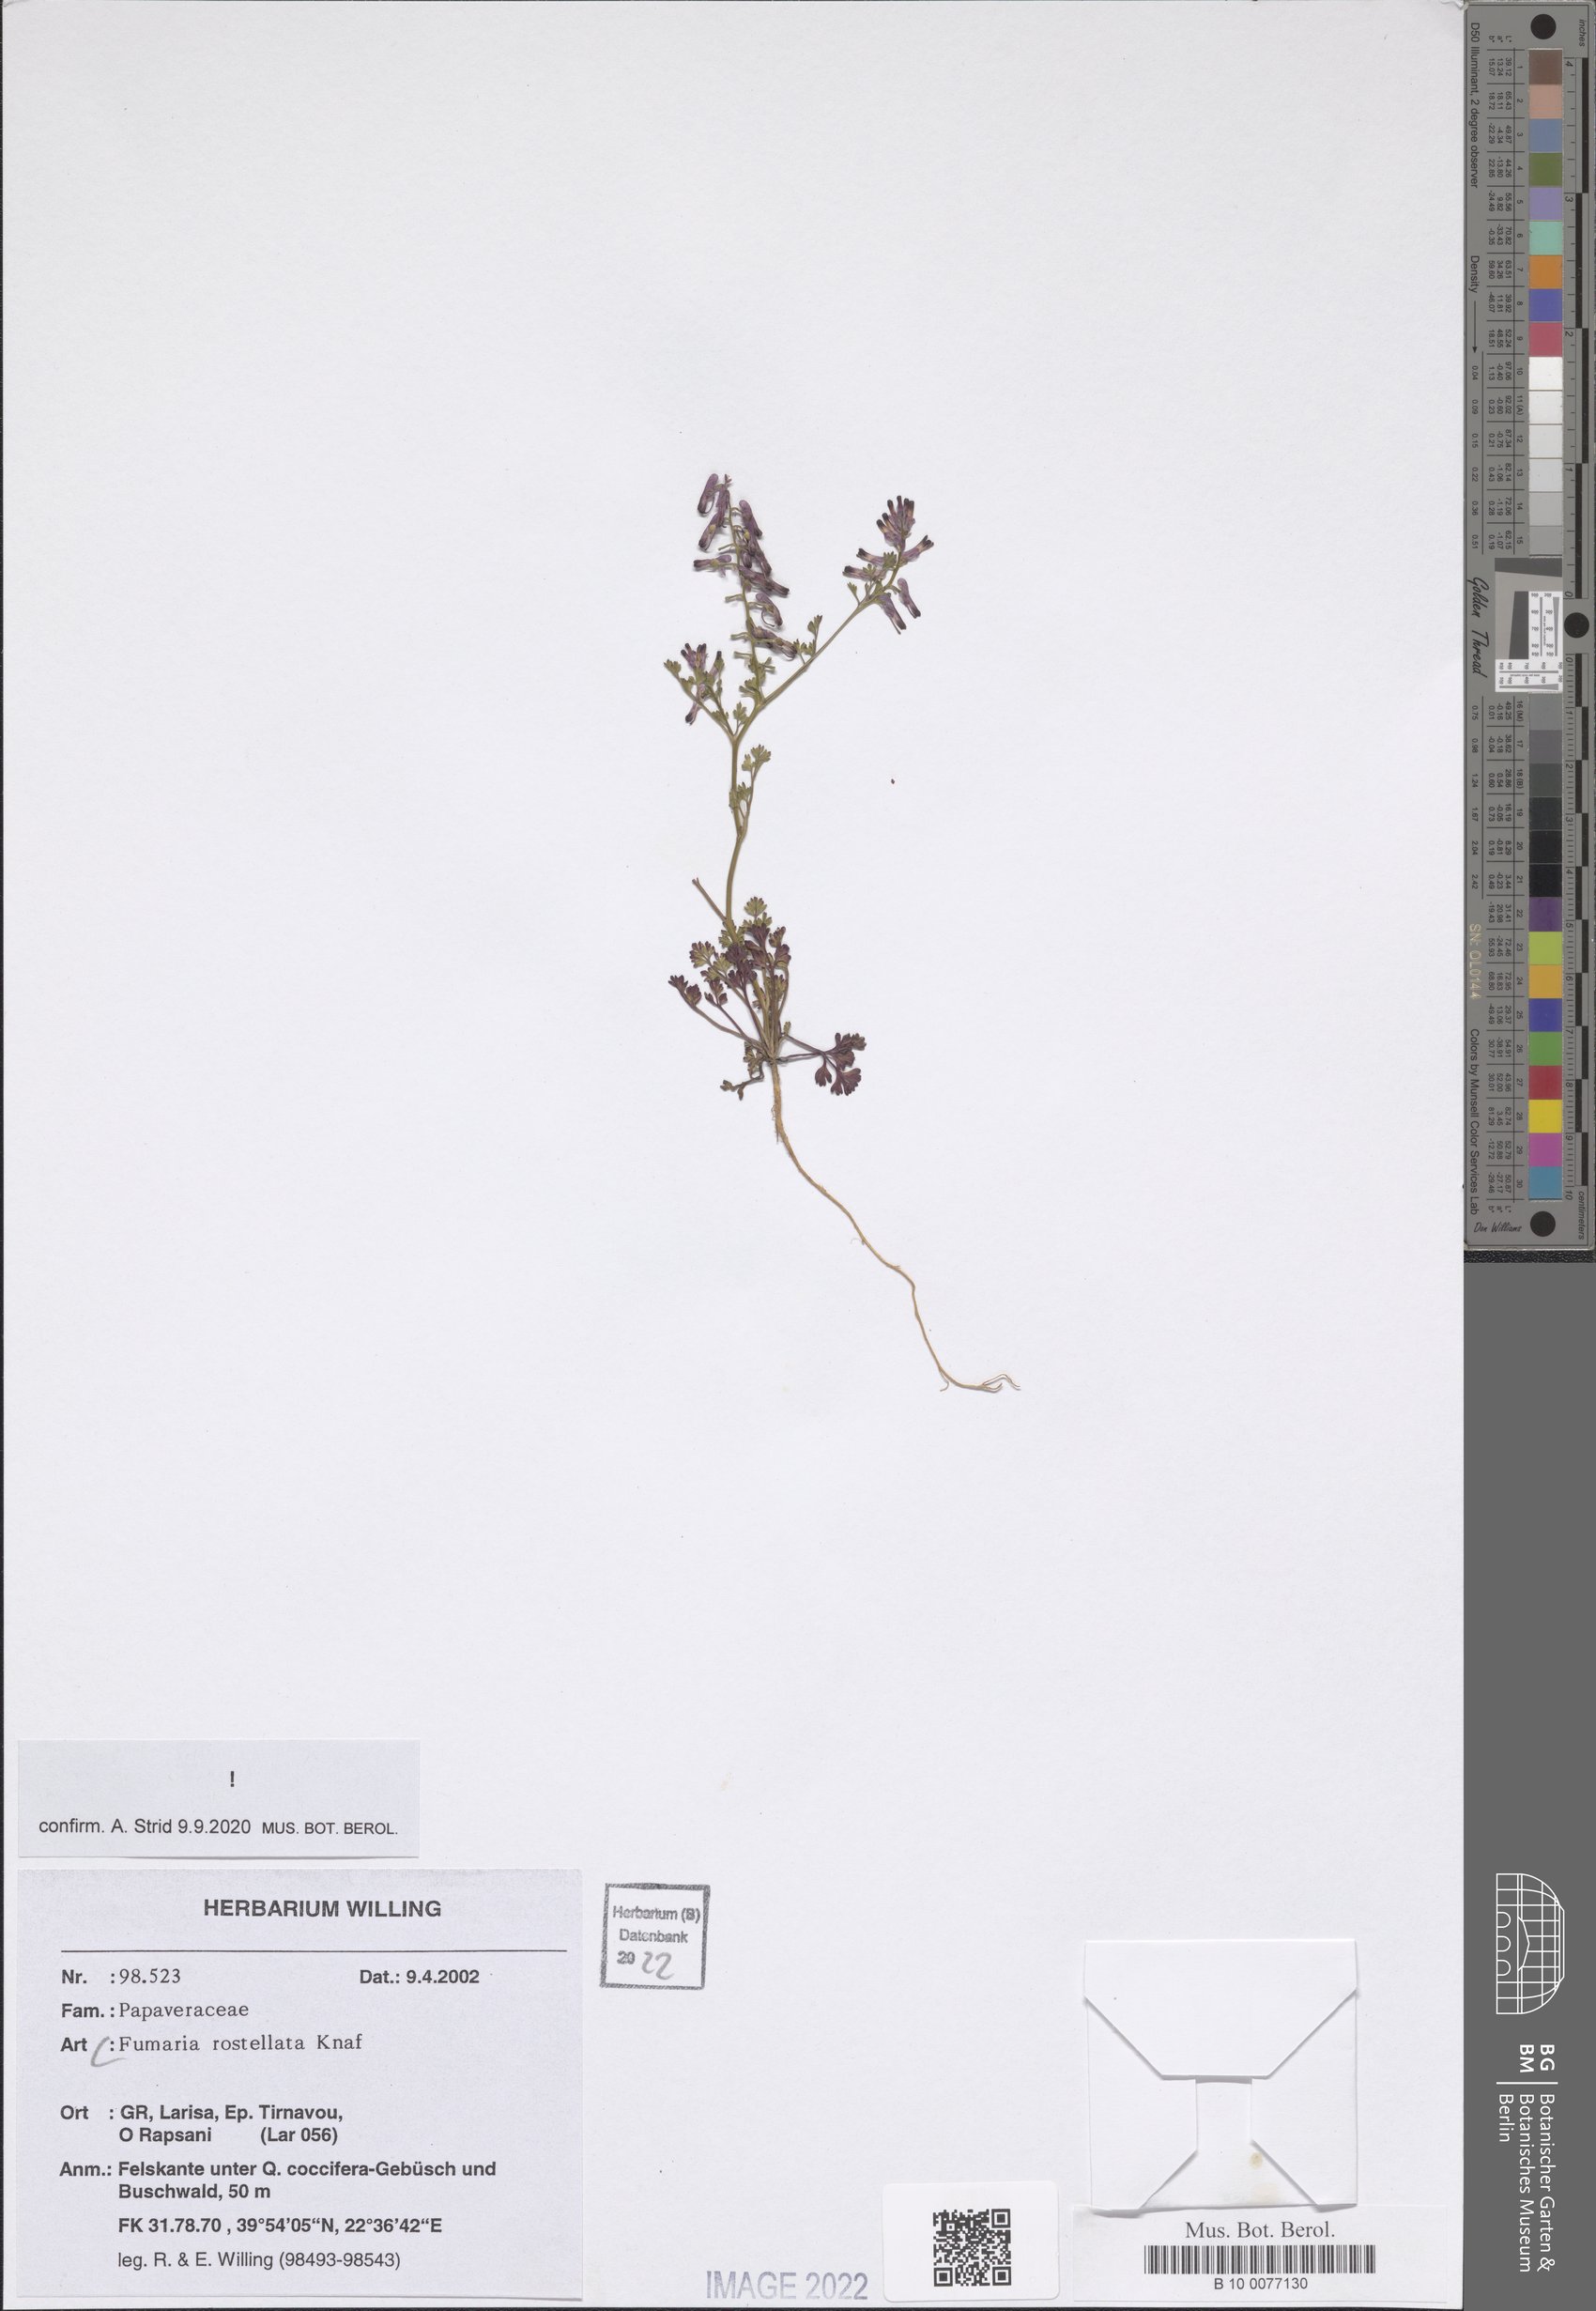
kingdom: Plantae
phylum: Tracheophyta
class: Magnoliopsida
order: Ranunculales
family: Papaveraceae
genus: Fumaria
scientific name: Fumaria rostellata
